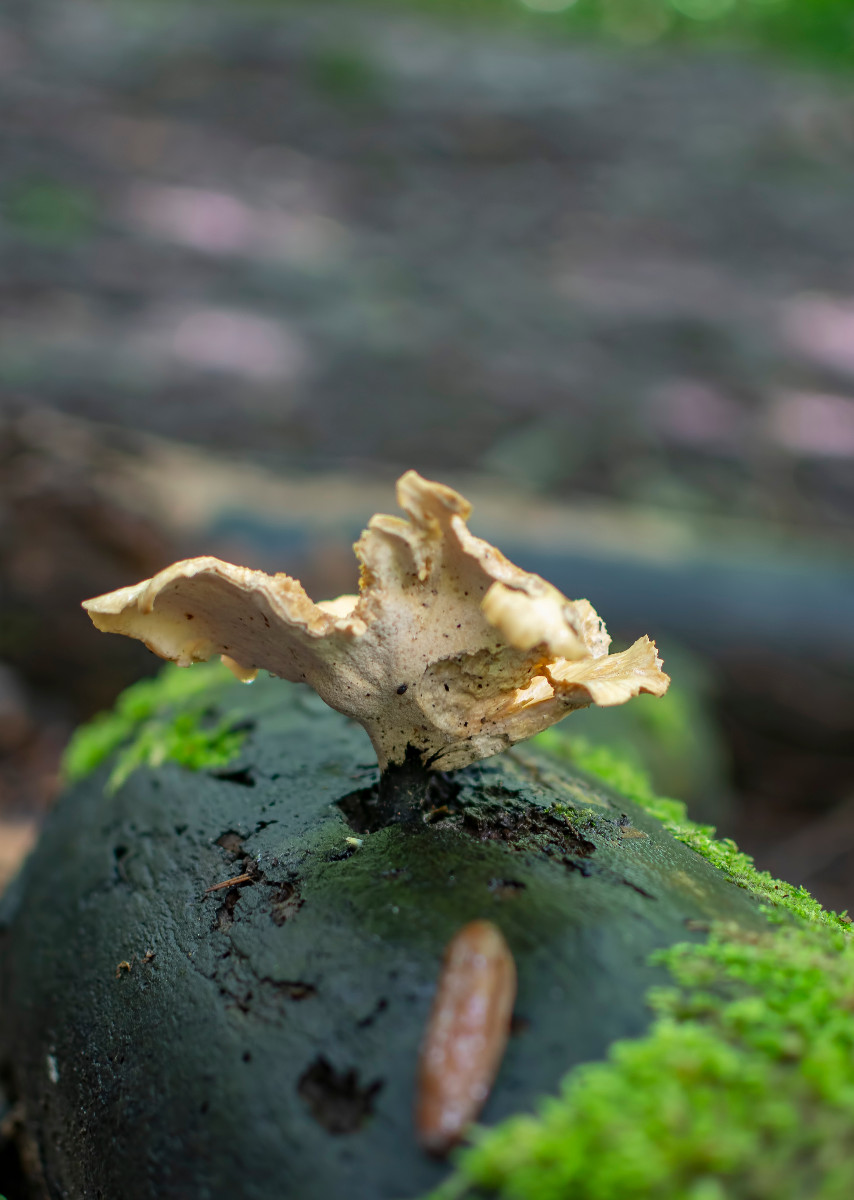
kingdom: Fungi
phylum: Basidiomycota
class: Agaricomycetes
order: Polyporales
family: Polyporaceae
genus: Cerioporus
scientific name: Cerioporus varius
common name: foranderlig stilkporesvamp
